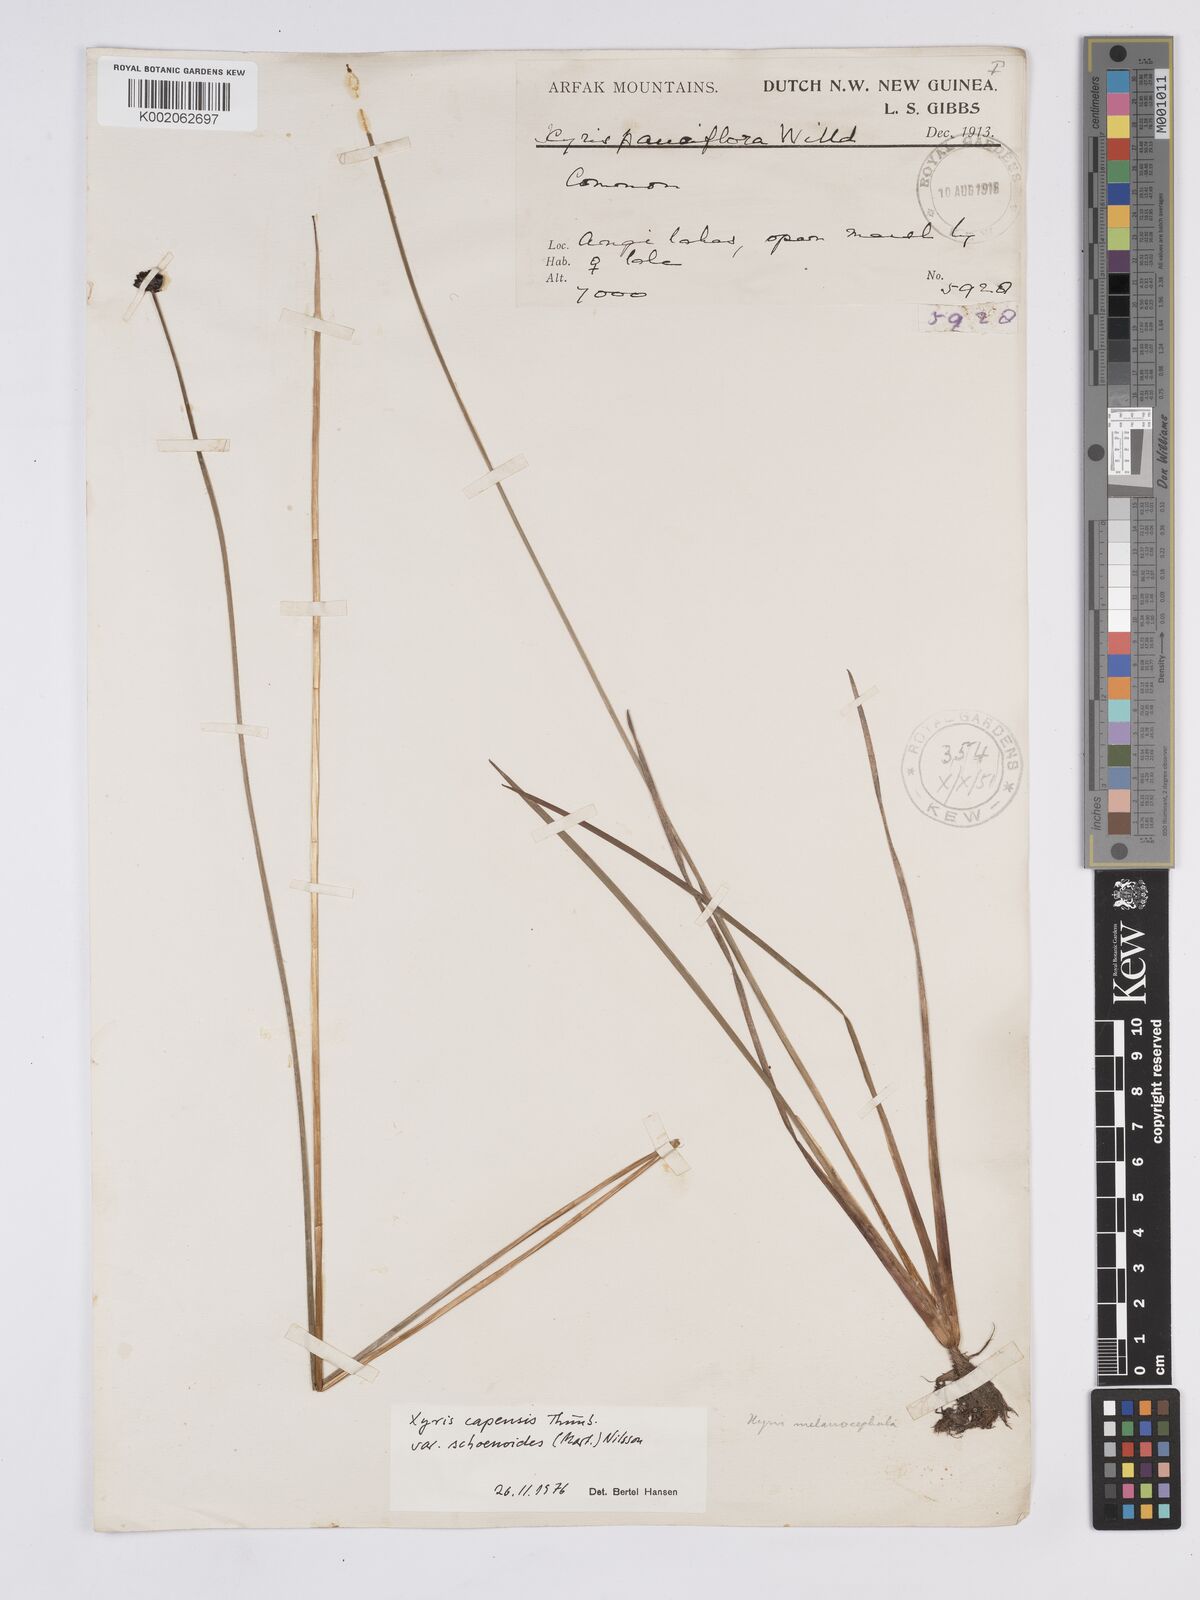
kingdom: Plantae
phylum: Tracheophyta
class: Liliopsida
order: Poales
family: Xyridaceae
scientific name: Xyridaceae
